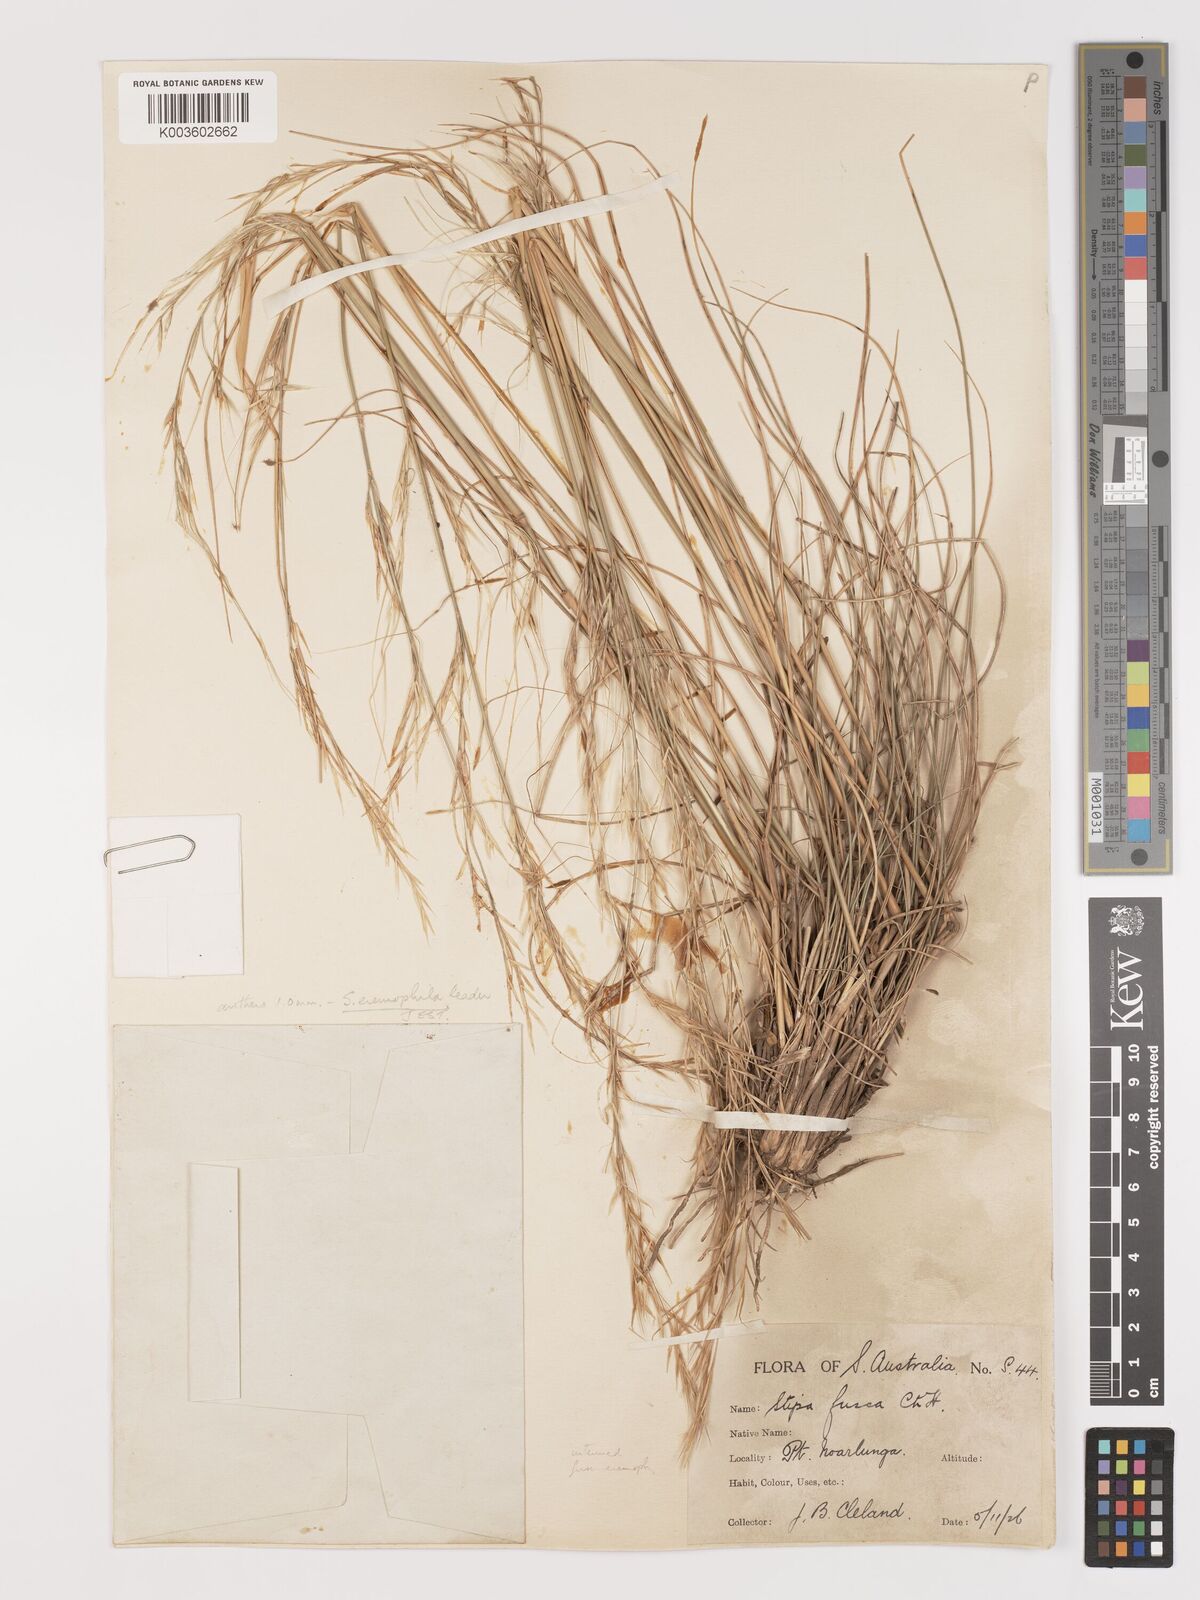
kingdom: Plantae
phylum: Tracheophyta
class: Liliopsida
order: Poales
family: Poaceae
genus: Austrostipa
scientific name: Austrostipa eremophila
